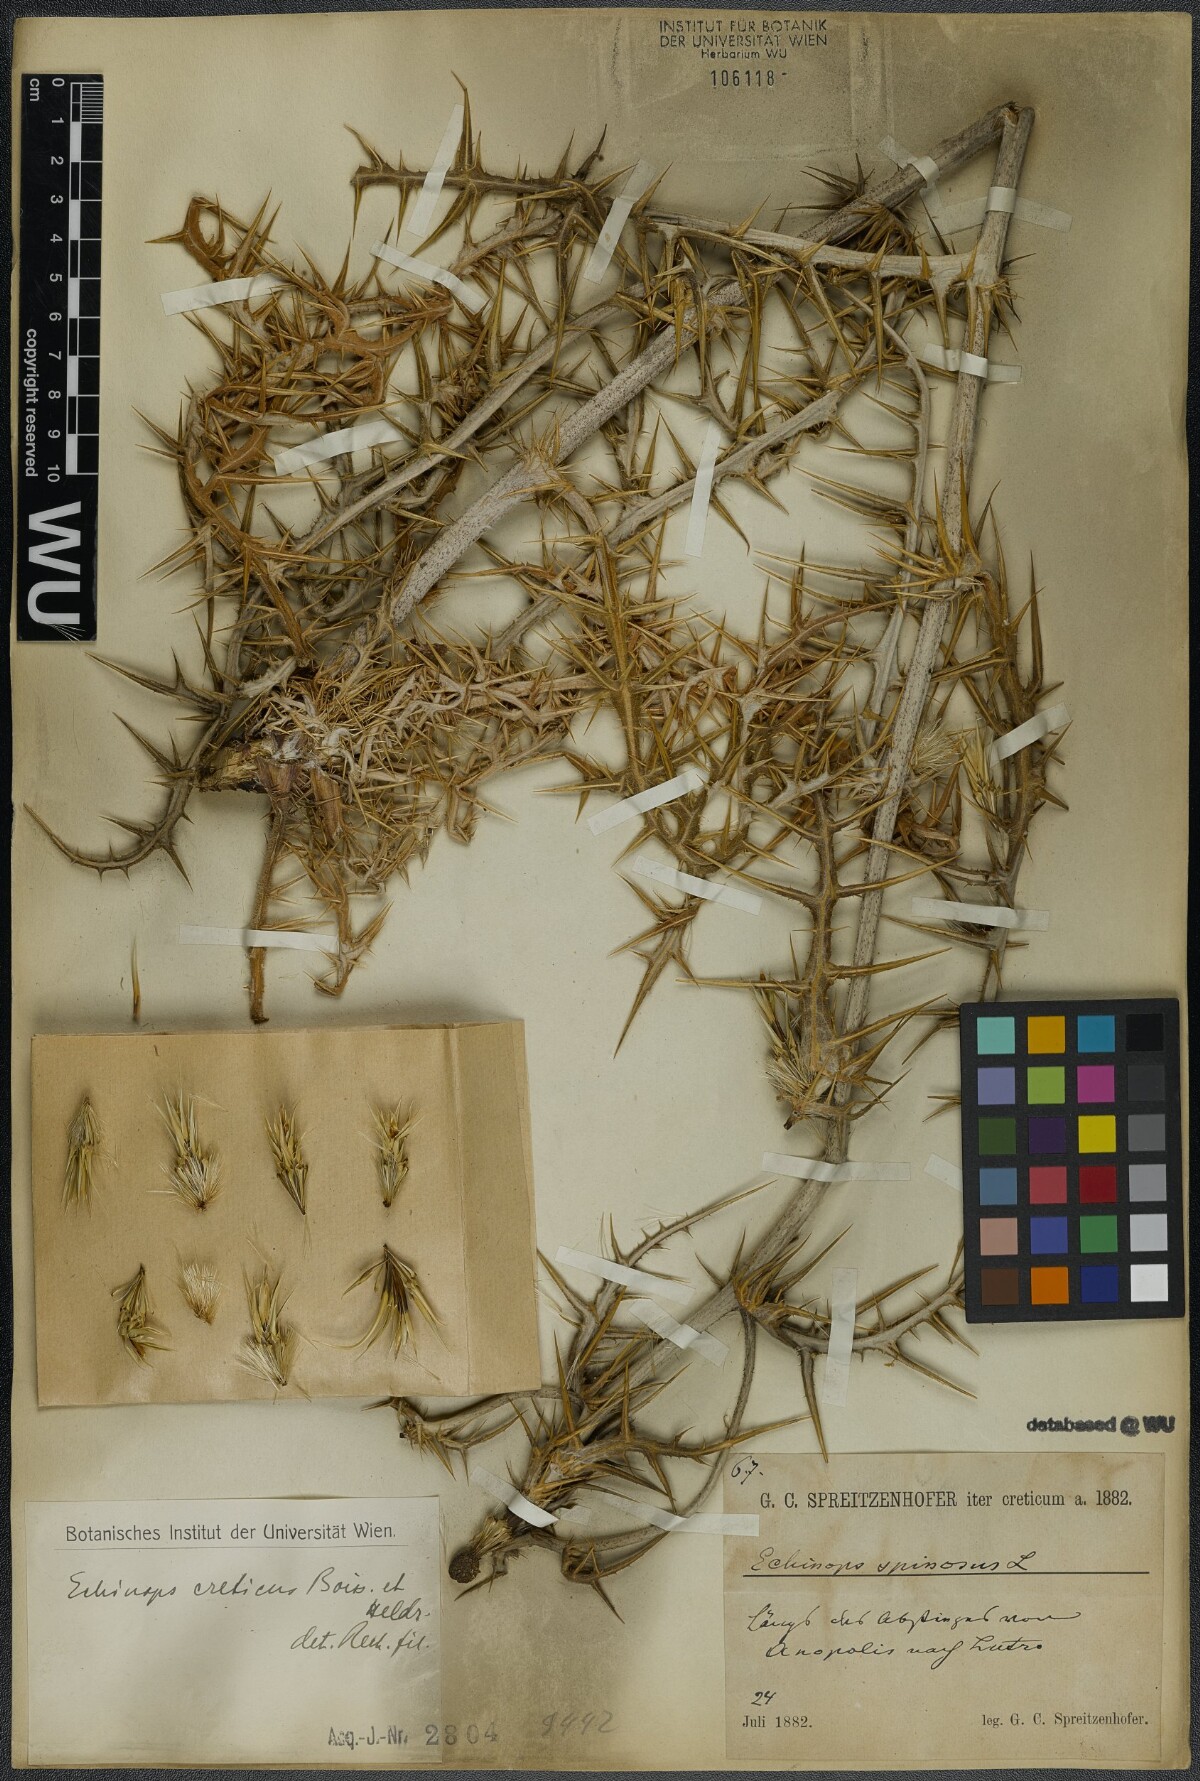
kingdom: Plantae
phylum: Tracheophyta
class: Magnoliopsida
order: Asterales
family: Asteraceae
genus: Echinops
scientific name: Echinops spinosissimus
